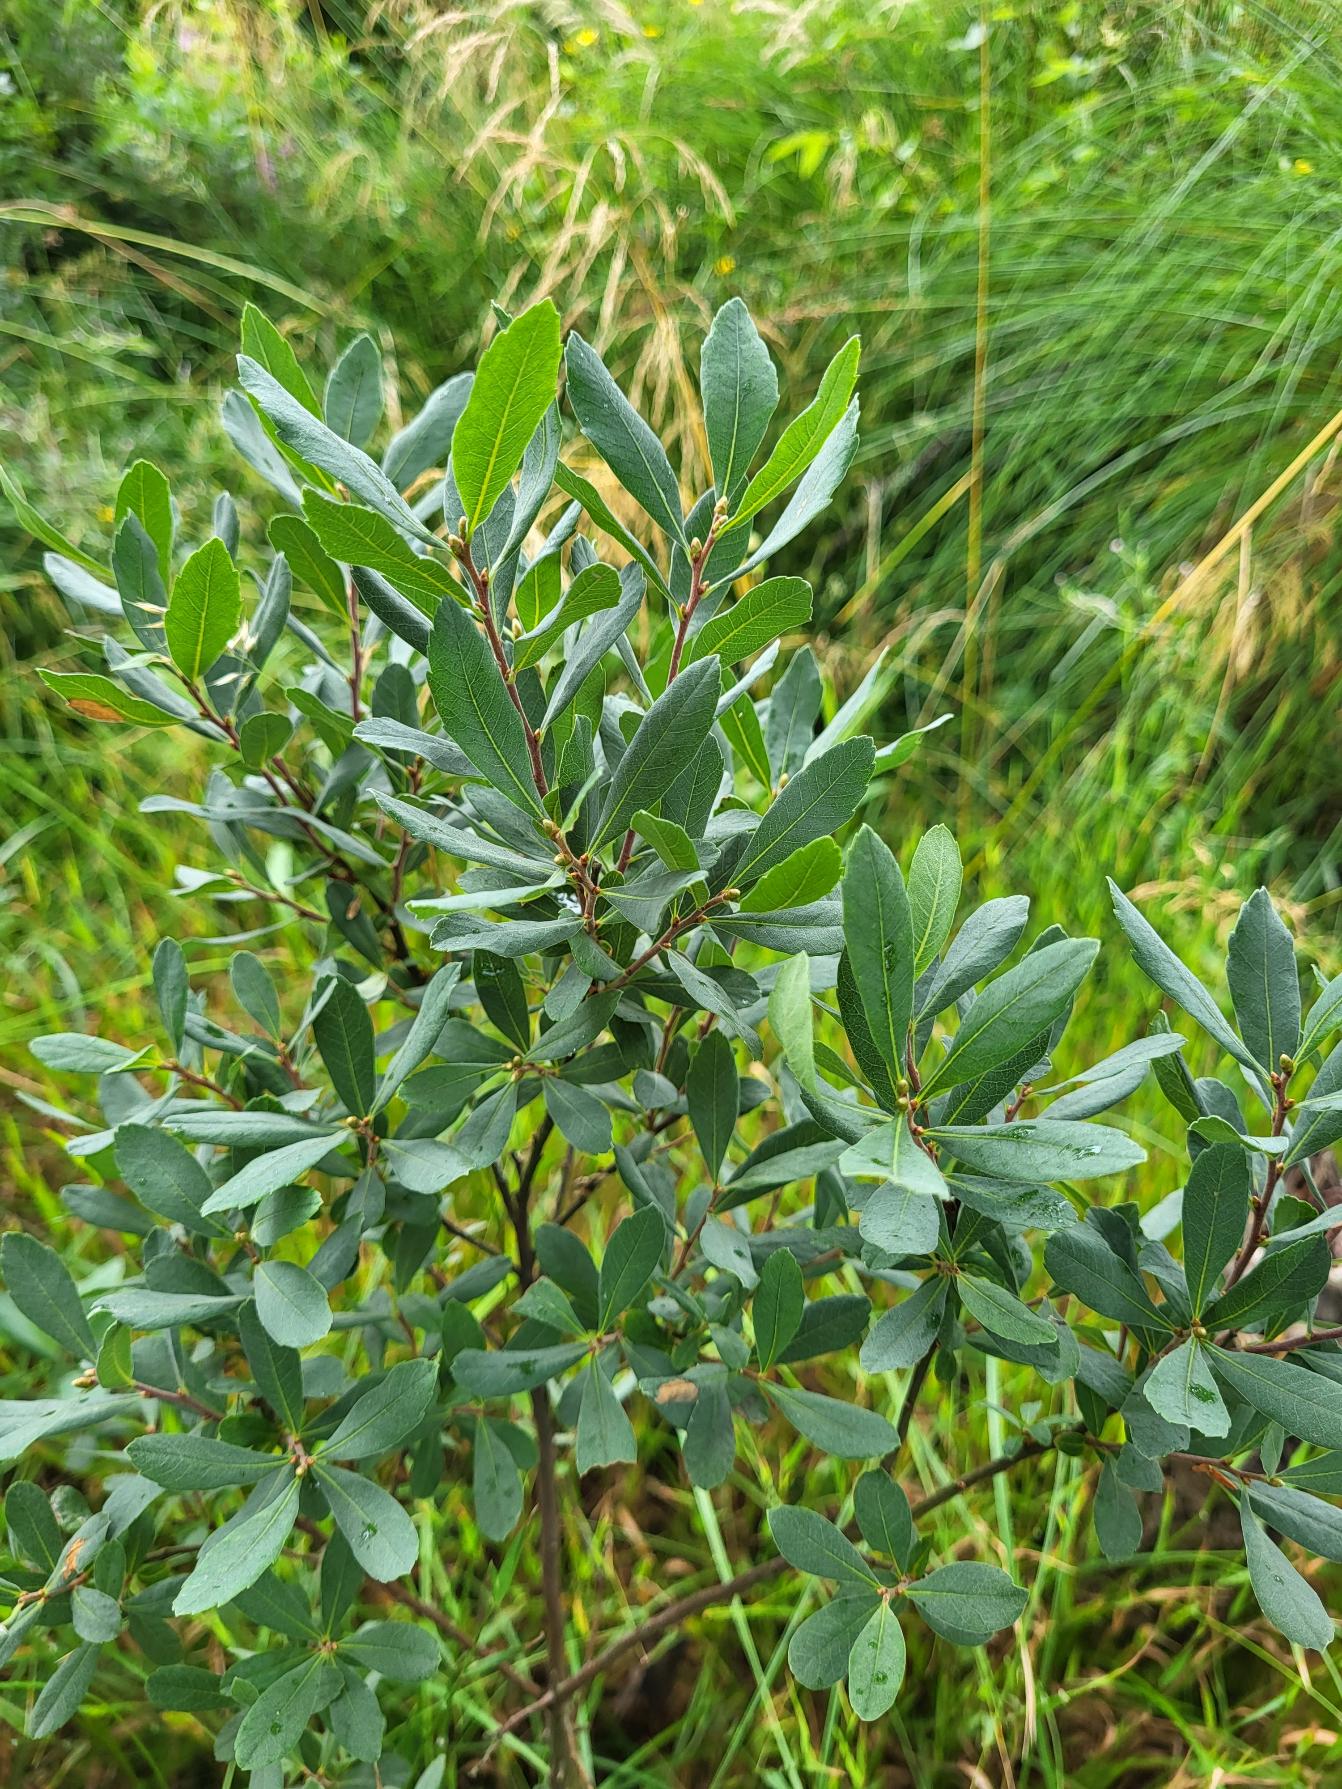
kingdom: Plantae
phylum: Tracheophyta
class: Magnoliopsida
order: Fagales
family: Myricaceae
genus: Myrica
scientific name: Myrica gale
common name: Pors
